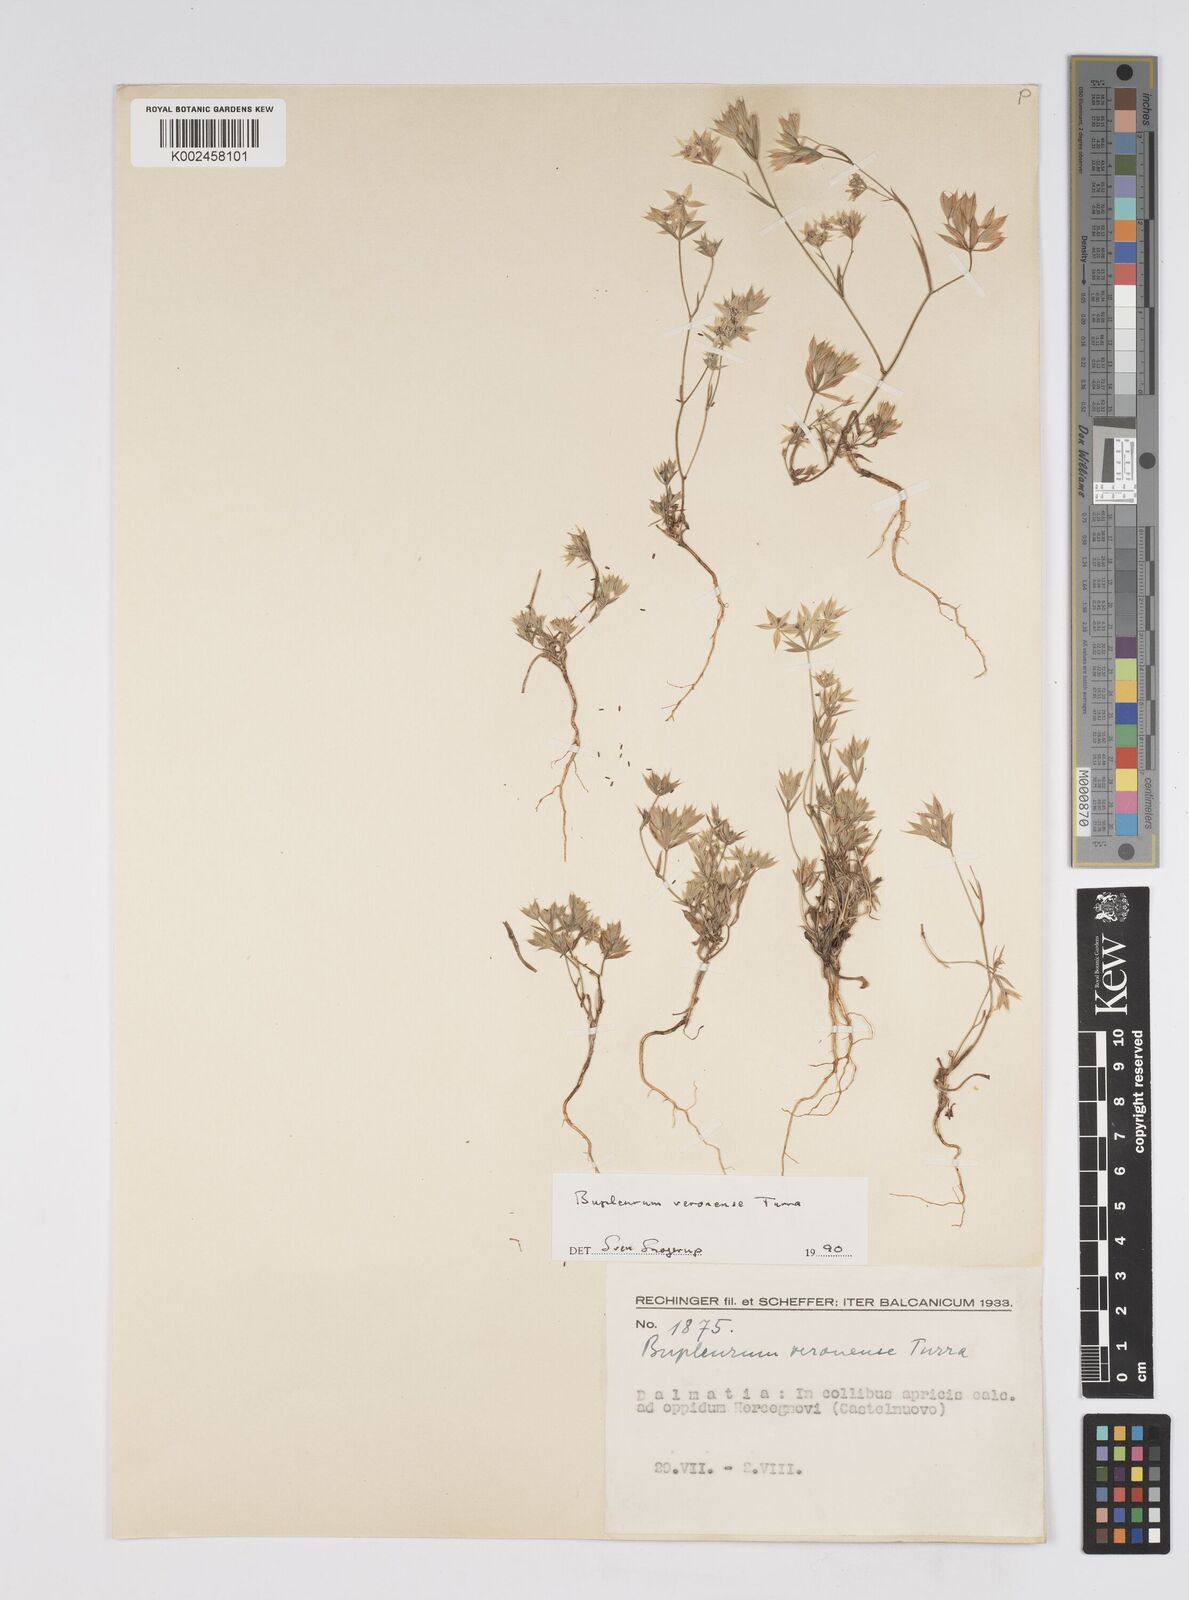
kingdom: Plantae
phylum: Tracheophyta
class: Magnoliopsida
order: Apiales
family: Apiaceae
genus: Bupleurum
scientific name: Bupleurum baldense
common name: Small hare's-ear
